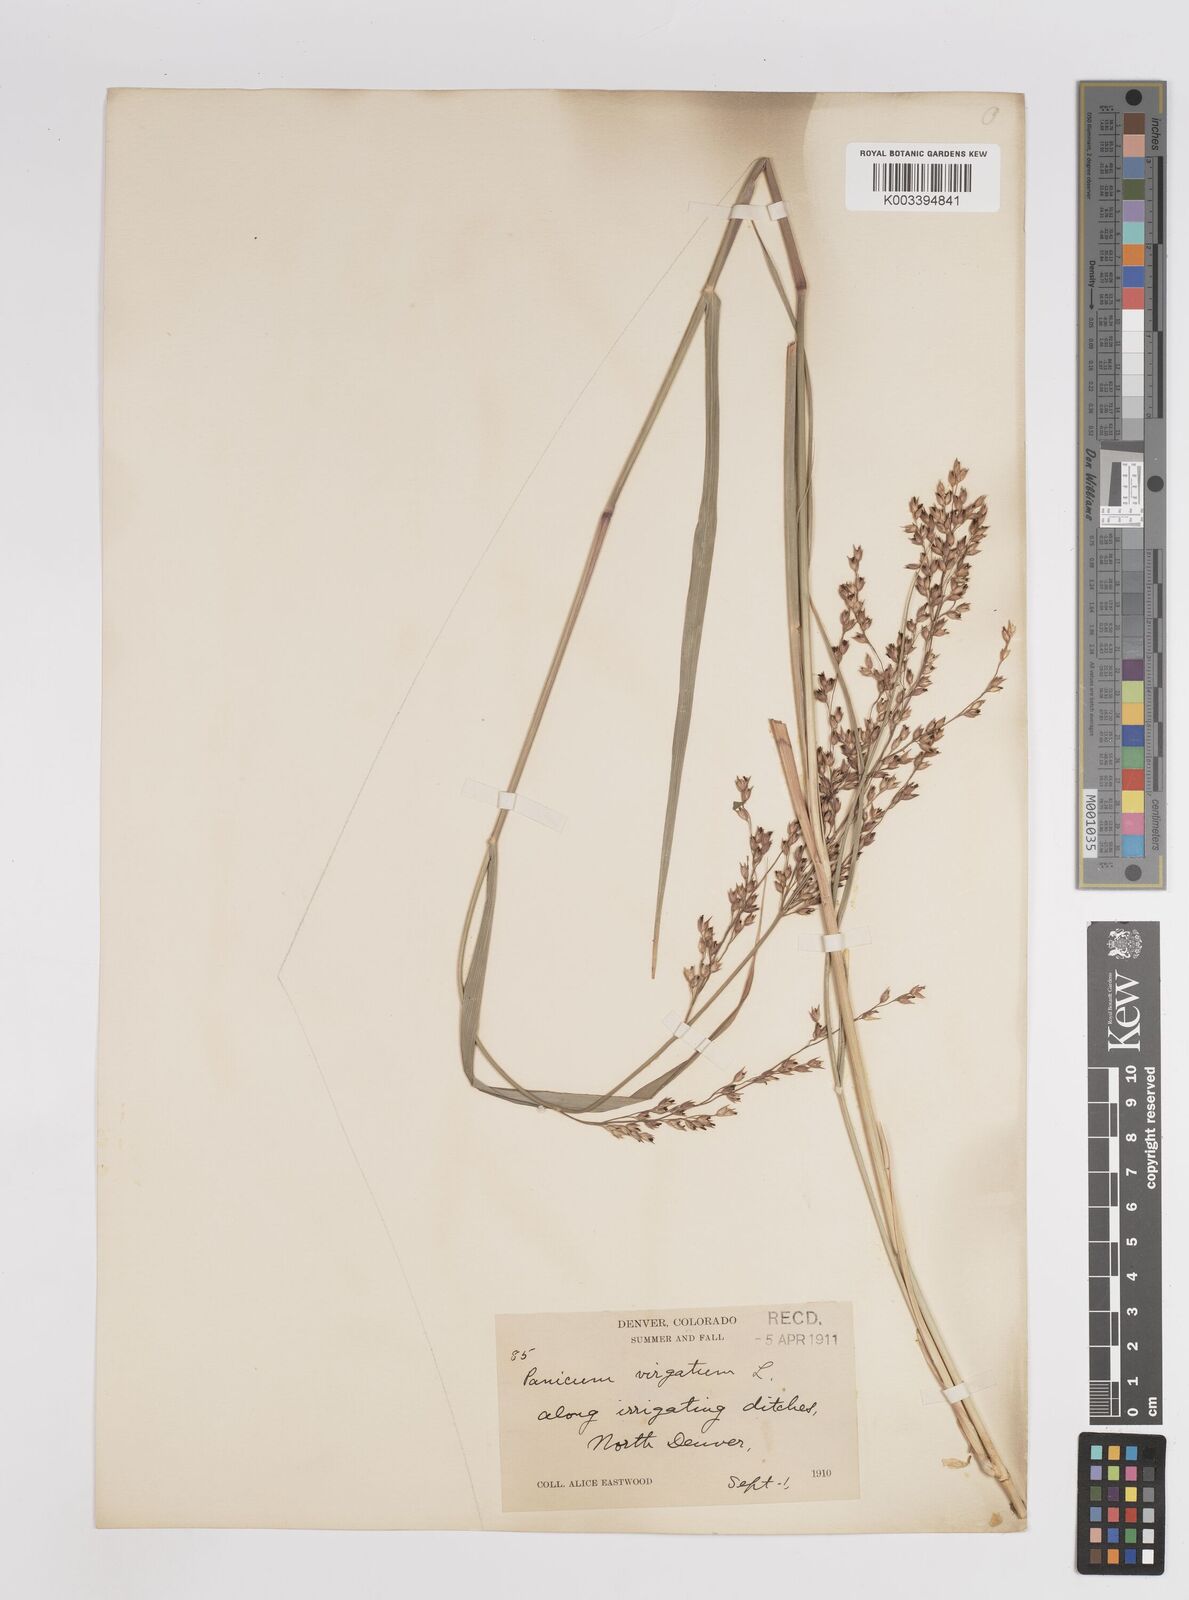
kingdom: Plantae
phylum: Tracheophyta
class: Liliopsida
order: Poales
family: Poaceae
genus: Panicum
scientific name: Panicum virgatum
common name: Switchgrass
